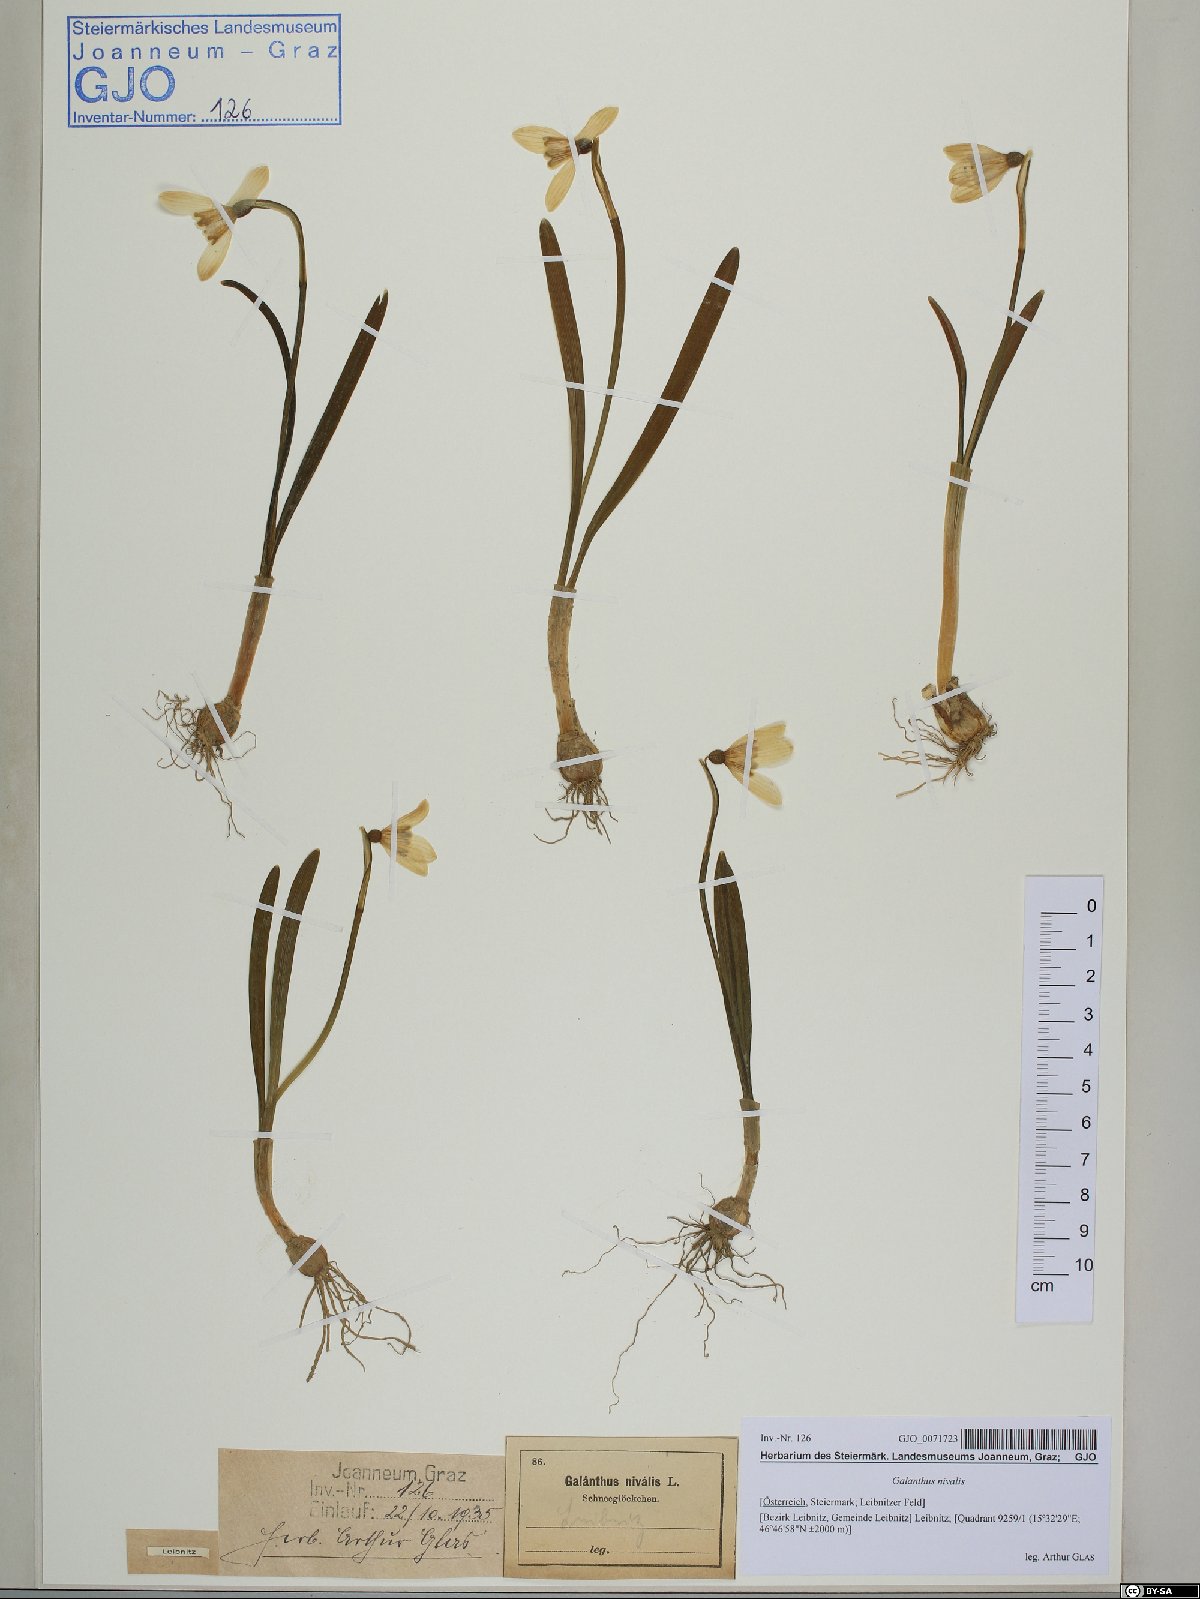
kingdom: Plantae
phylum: Tracheophyta
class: Liliopsida
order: Asparagales
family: Amaryllidaceae
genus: Galanthus
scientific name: Galanthus nivalis
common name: Snowdrop
